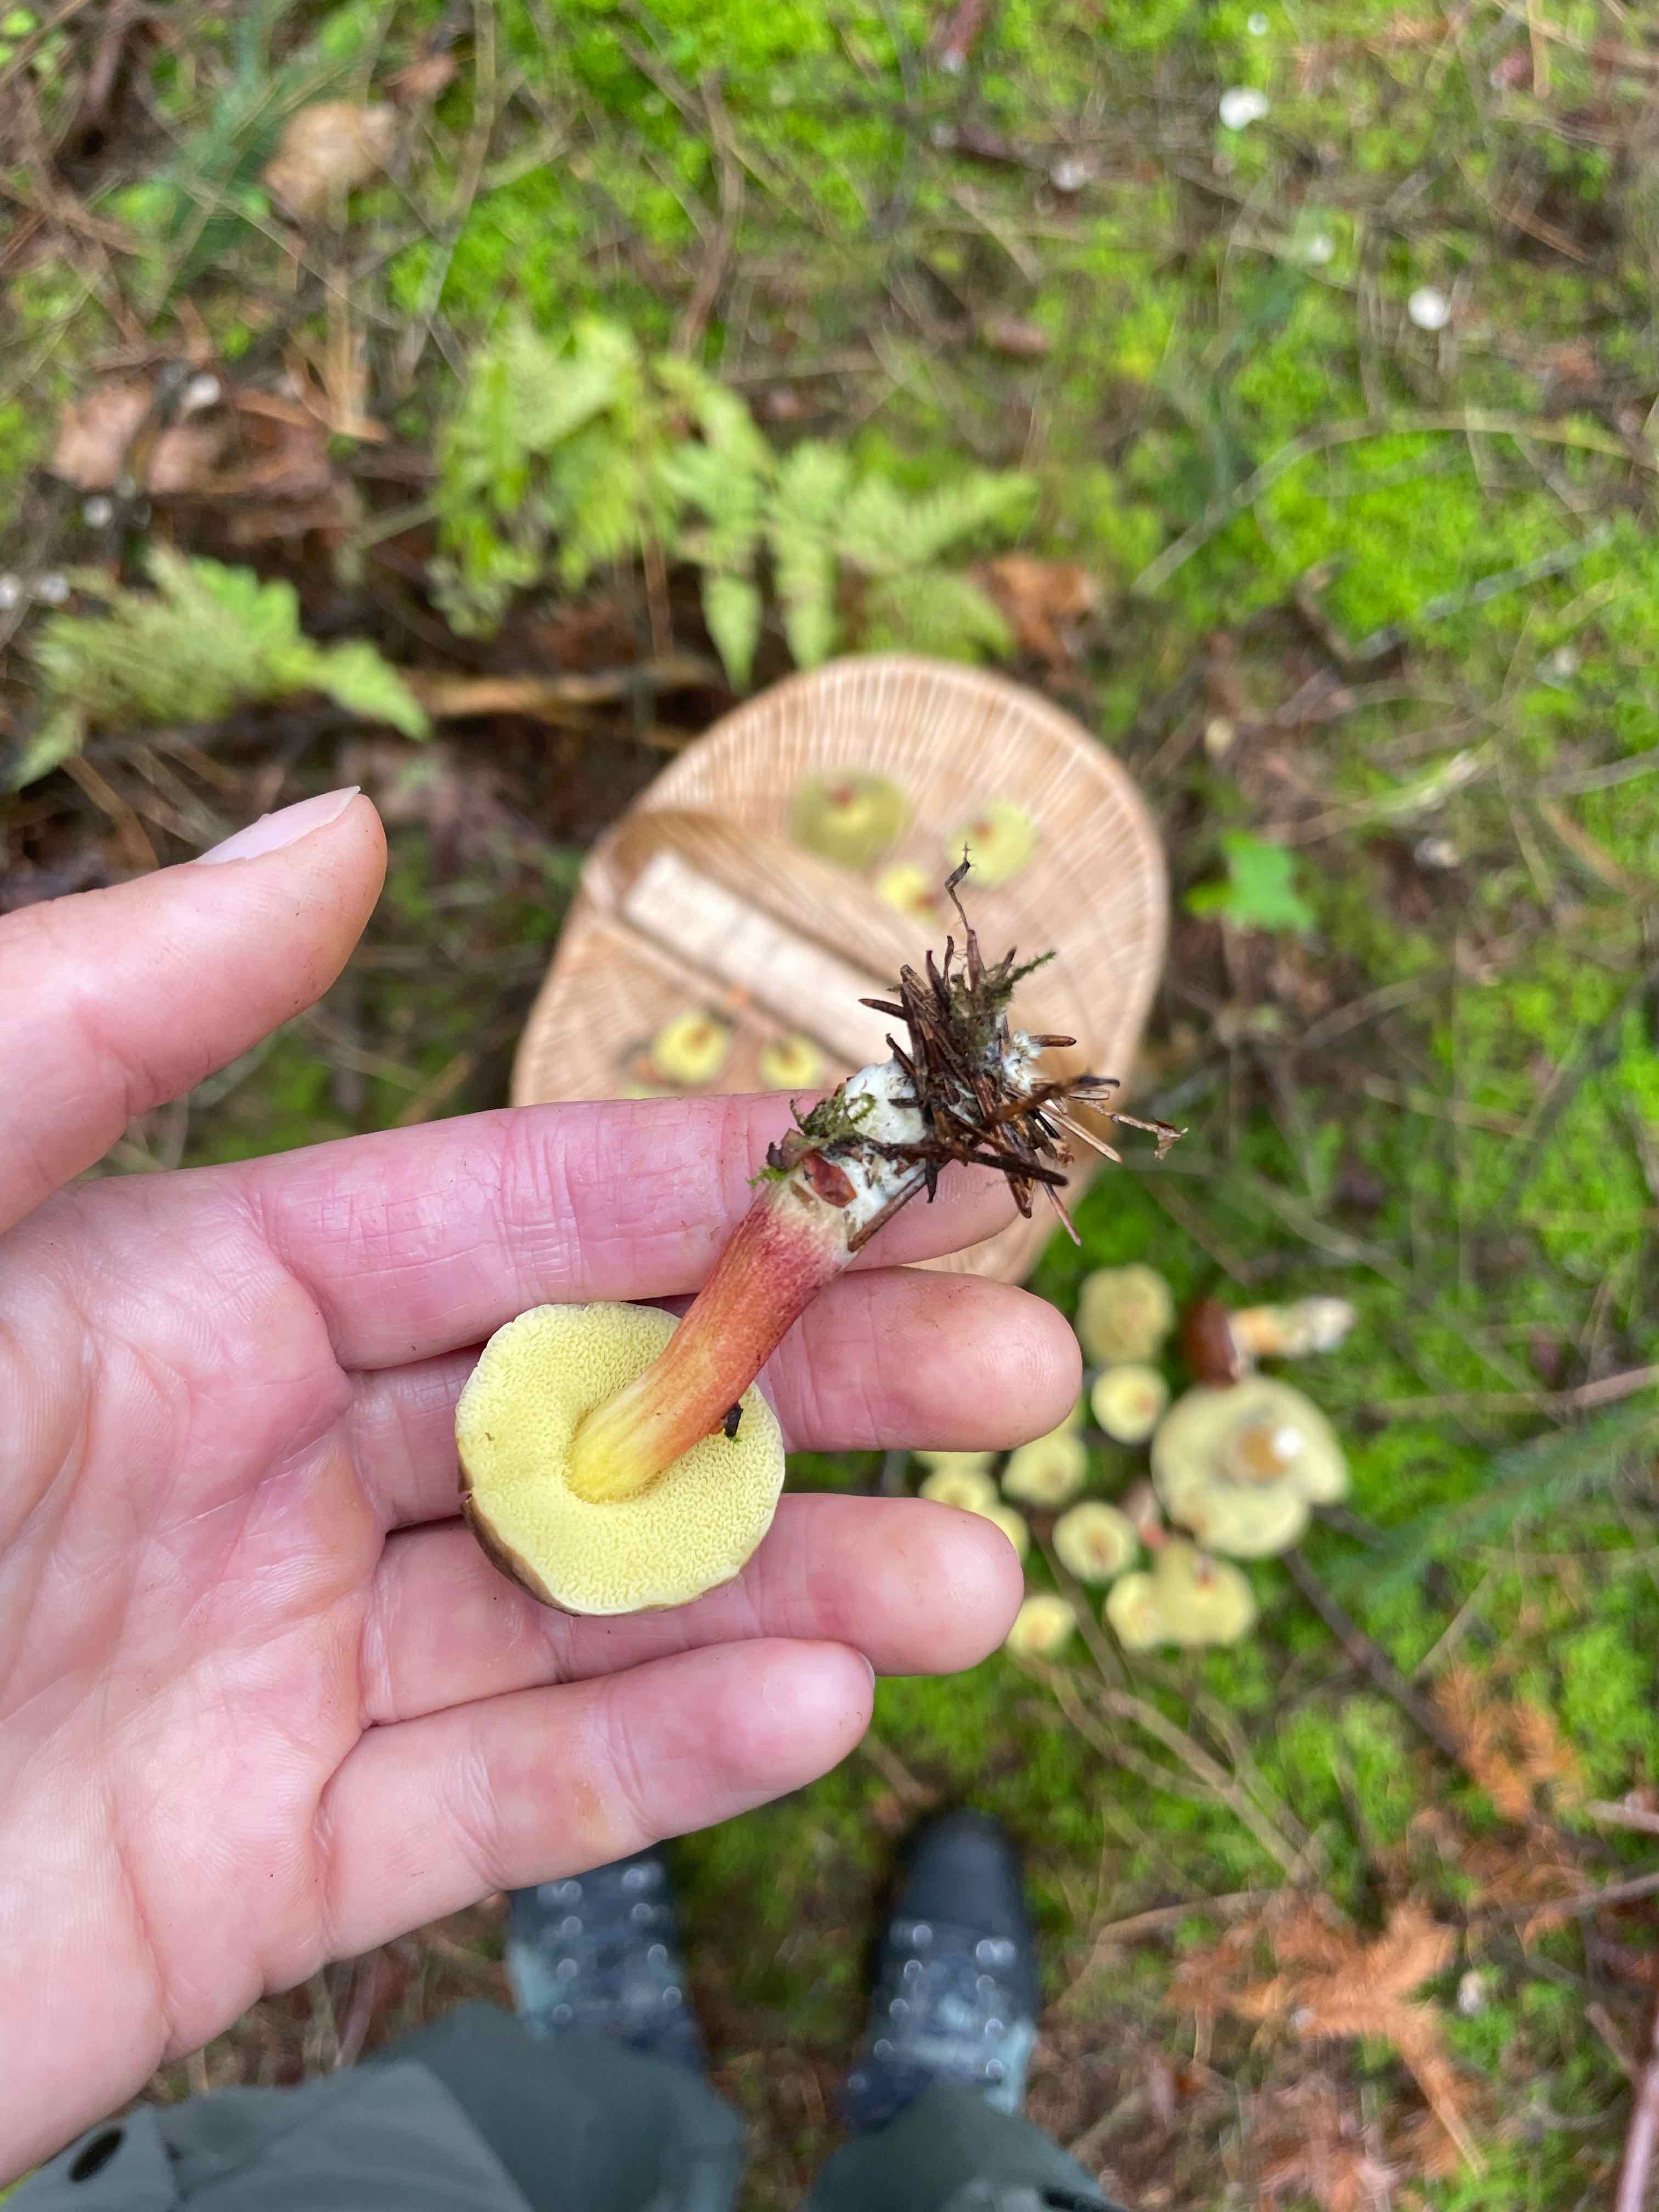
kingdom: Fungi
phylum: Basidiomycota
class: Agaricomycetes
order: Boletales
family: Boletaceae
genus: Xerocomellus
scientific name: Xerocomellus chrysenteron
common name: rødsprukken rørhat
